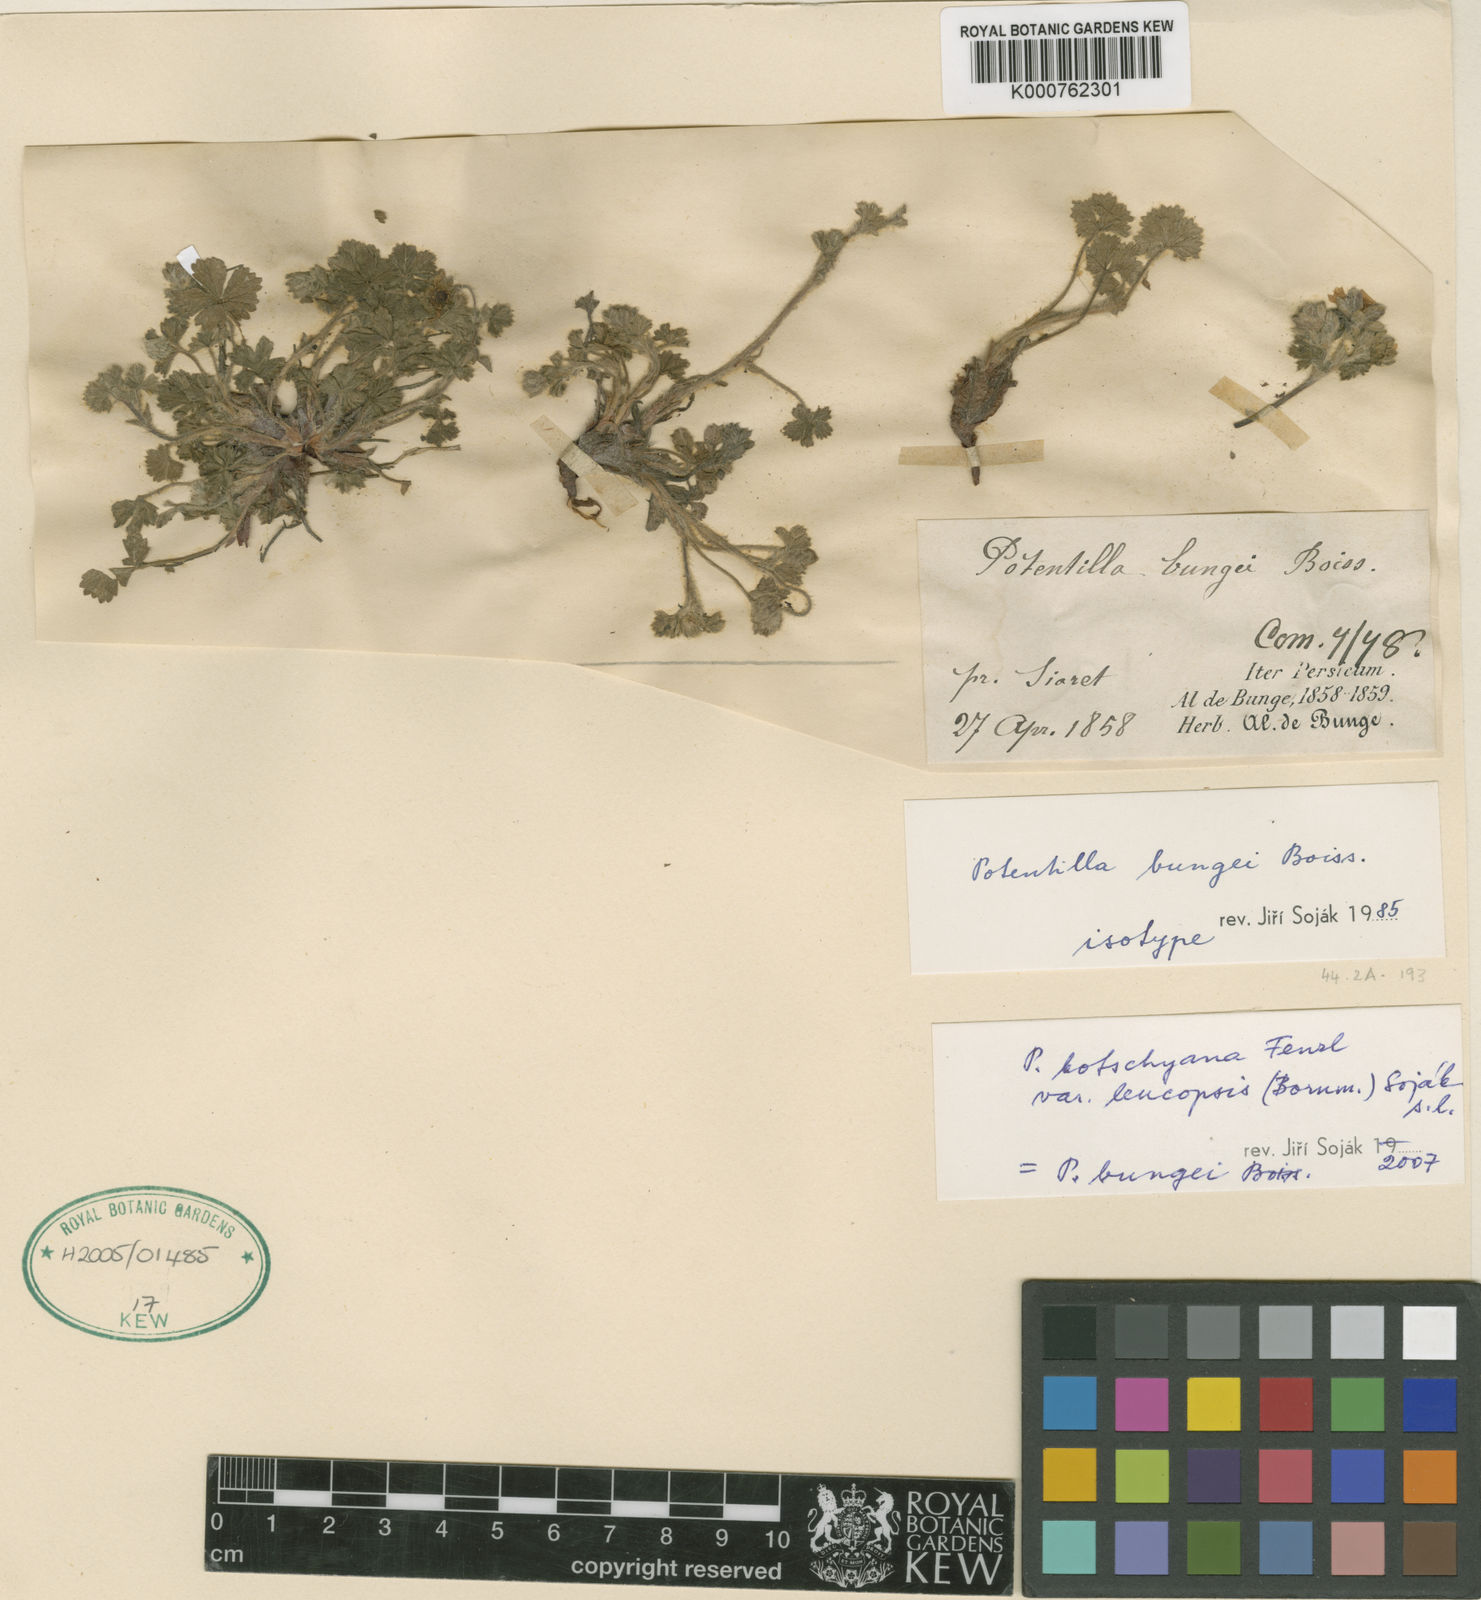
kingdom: Plantae
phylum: Tracheophyta
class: Magnoliopsida
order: Rosales
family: Rosaceae
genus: Potentilla
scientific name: Potentilla kotschyana
